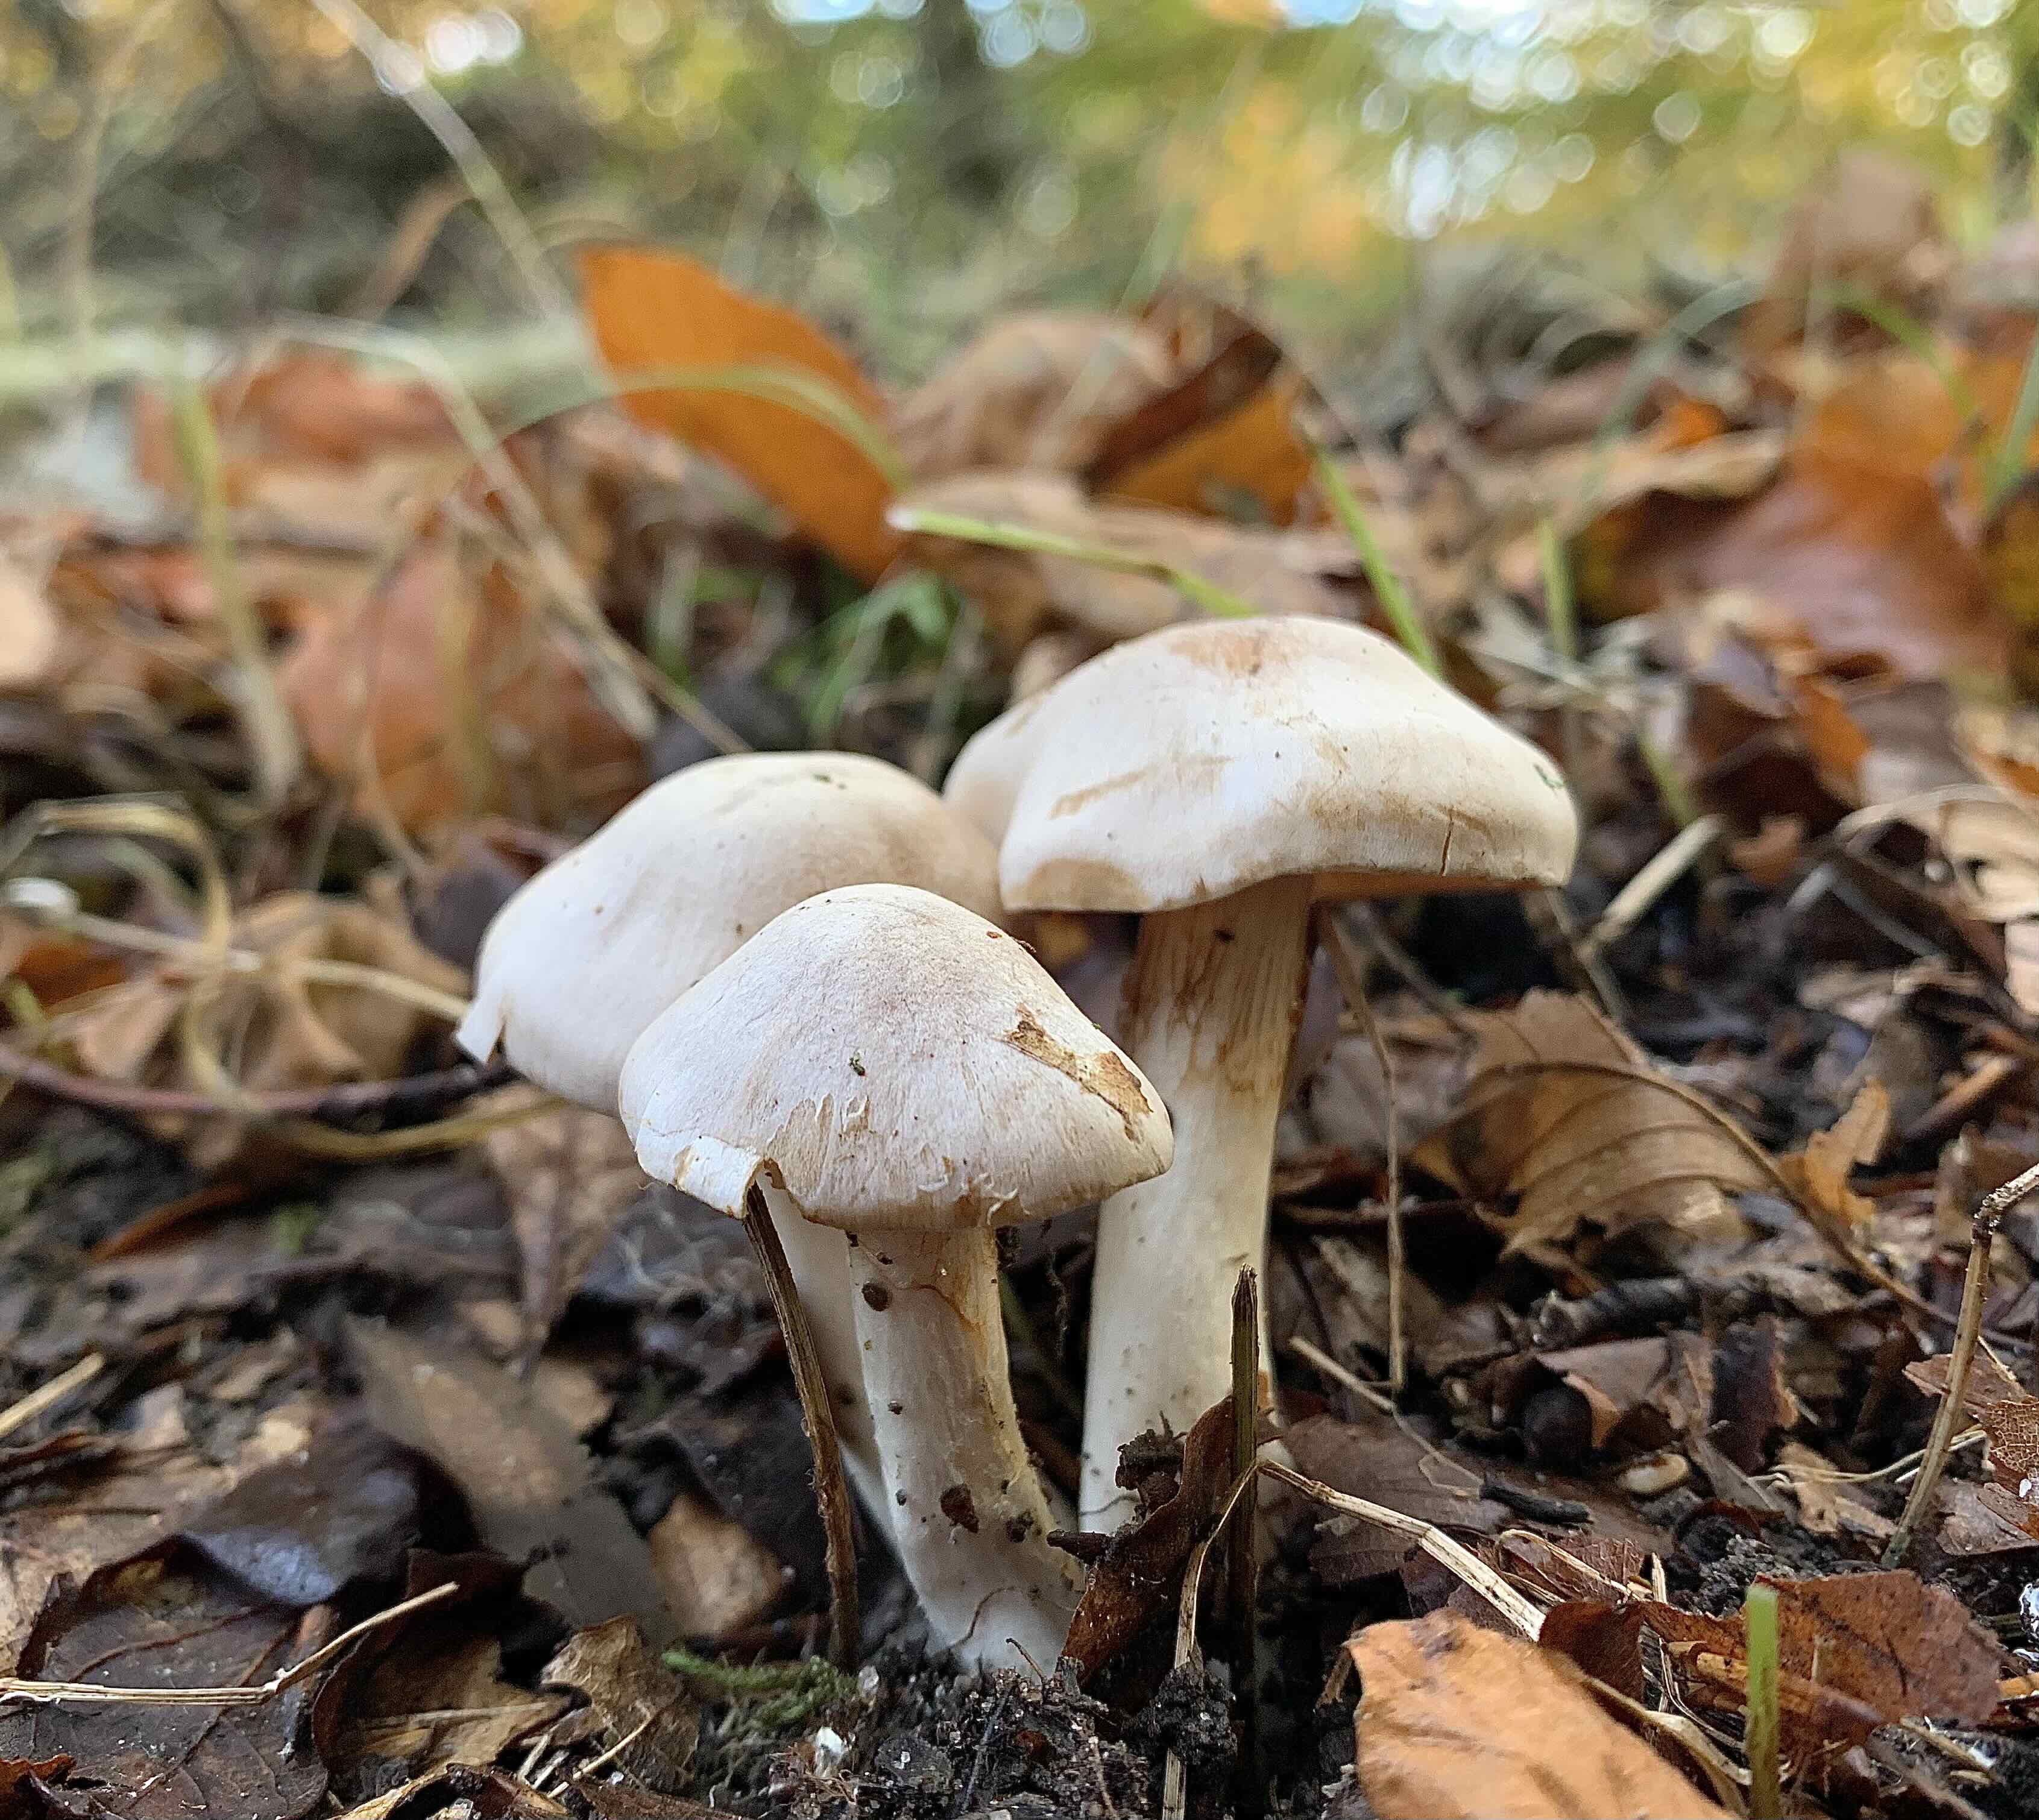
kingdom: Fungi
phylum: Basidiomycota
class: Agaricomycetes
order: Agaricales
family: Cortinariaceae
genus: Cortinarius
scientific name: Cortinarius
